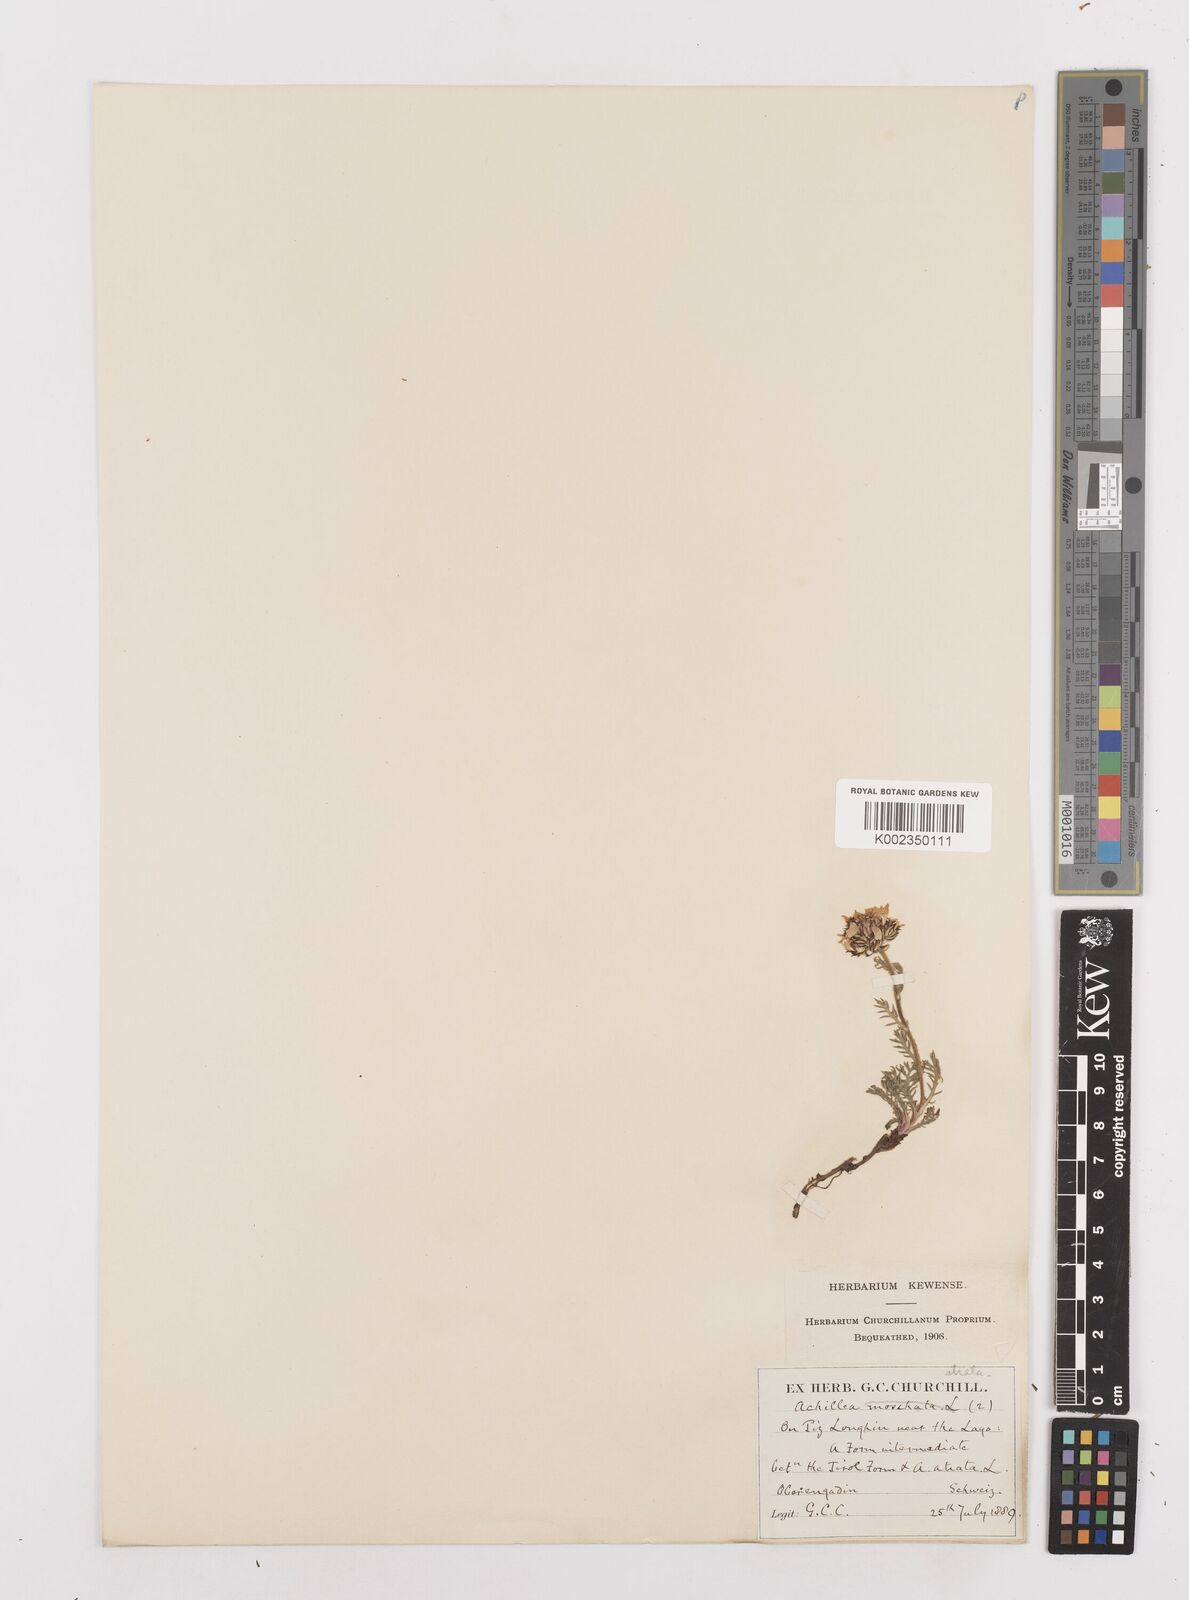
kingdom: Plantae
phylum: Tracheophyta
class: Magnoliopsida
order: Asterales
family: Asteraceae
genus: Achillea
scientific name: Achillea atrata
